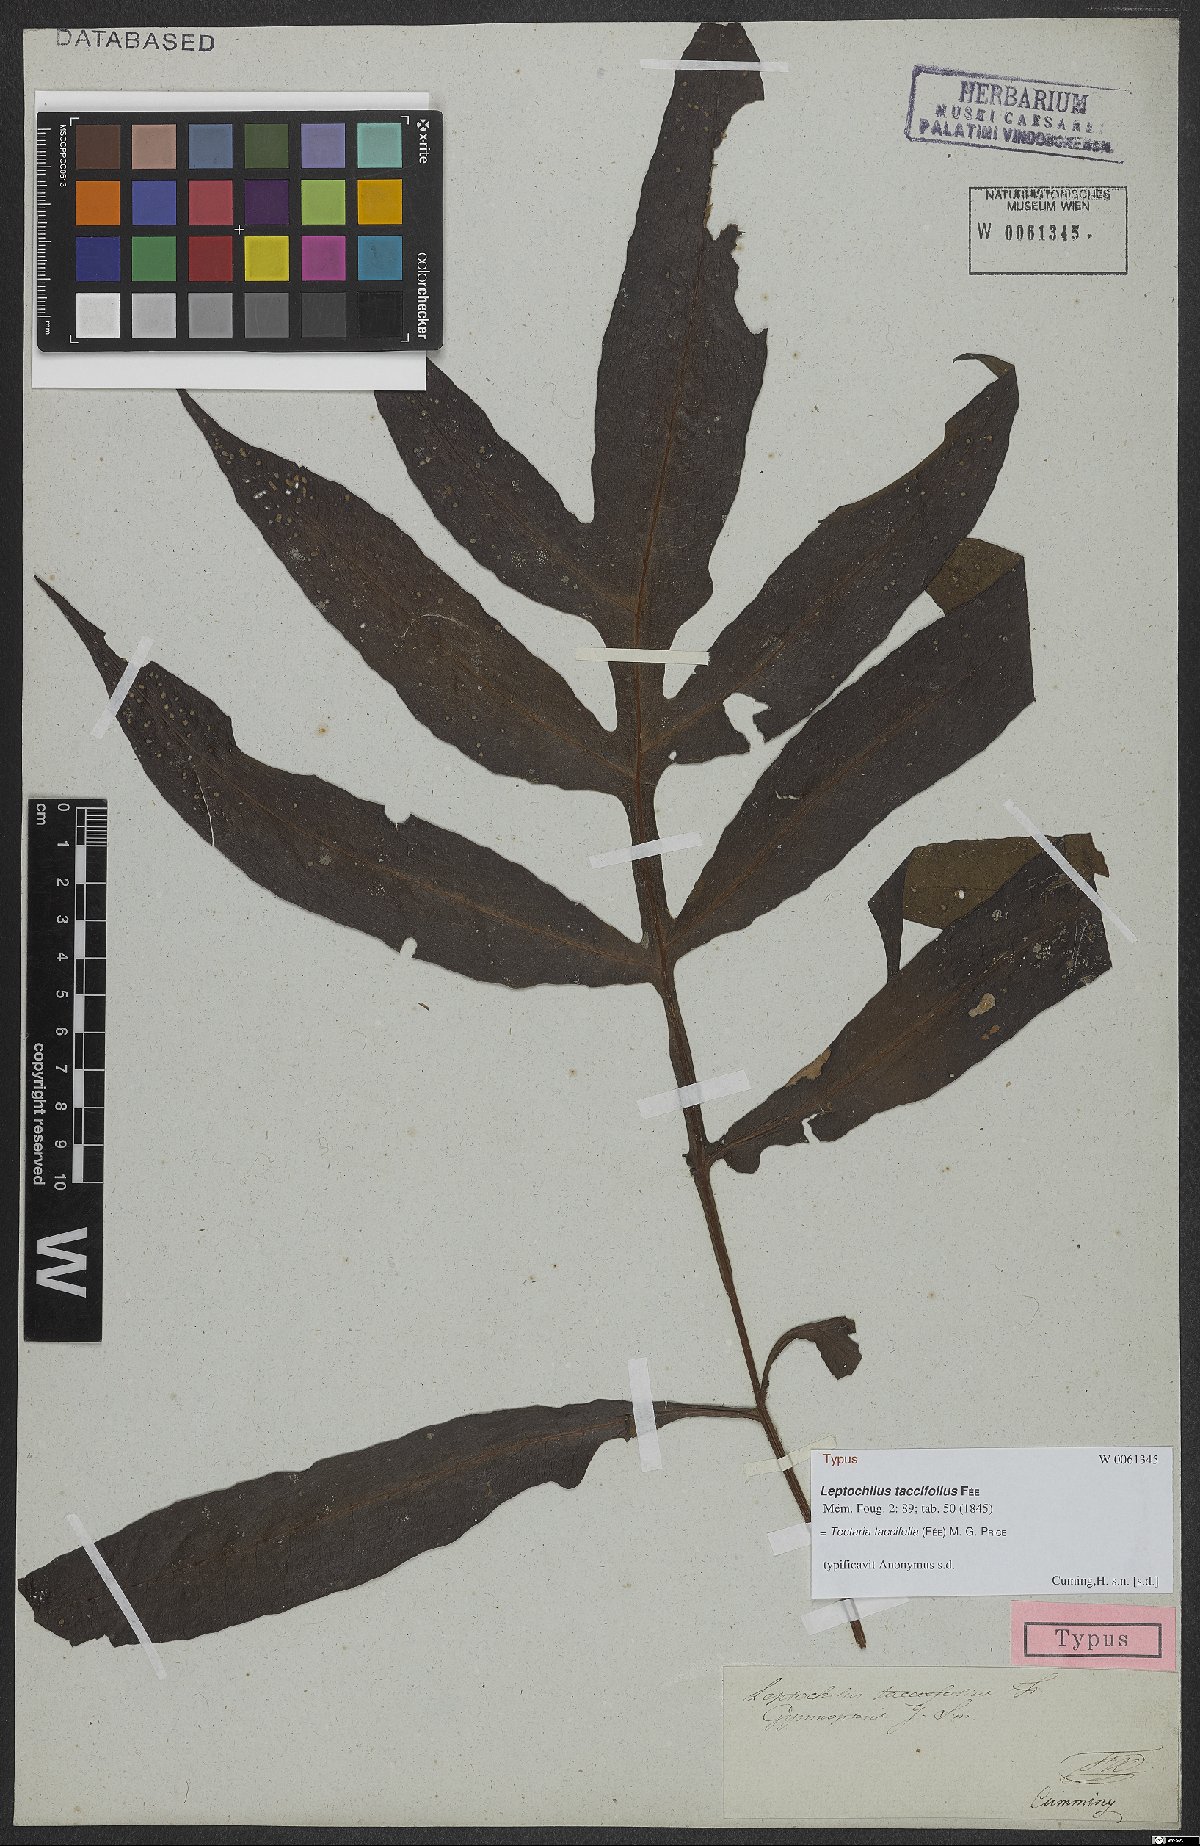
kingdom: Plantae
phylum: Tracheophyta
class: Polypodiopsida
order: Polypodiales
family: Tectariaceae
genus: Tectaria
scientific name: Tectaria taccifolia
